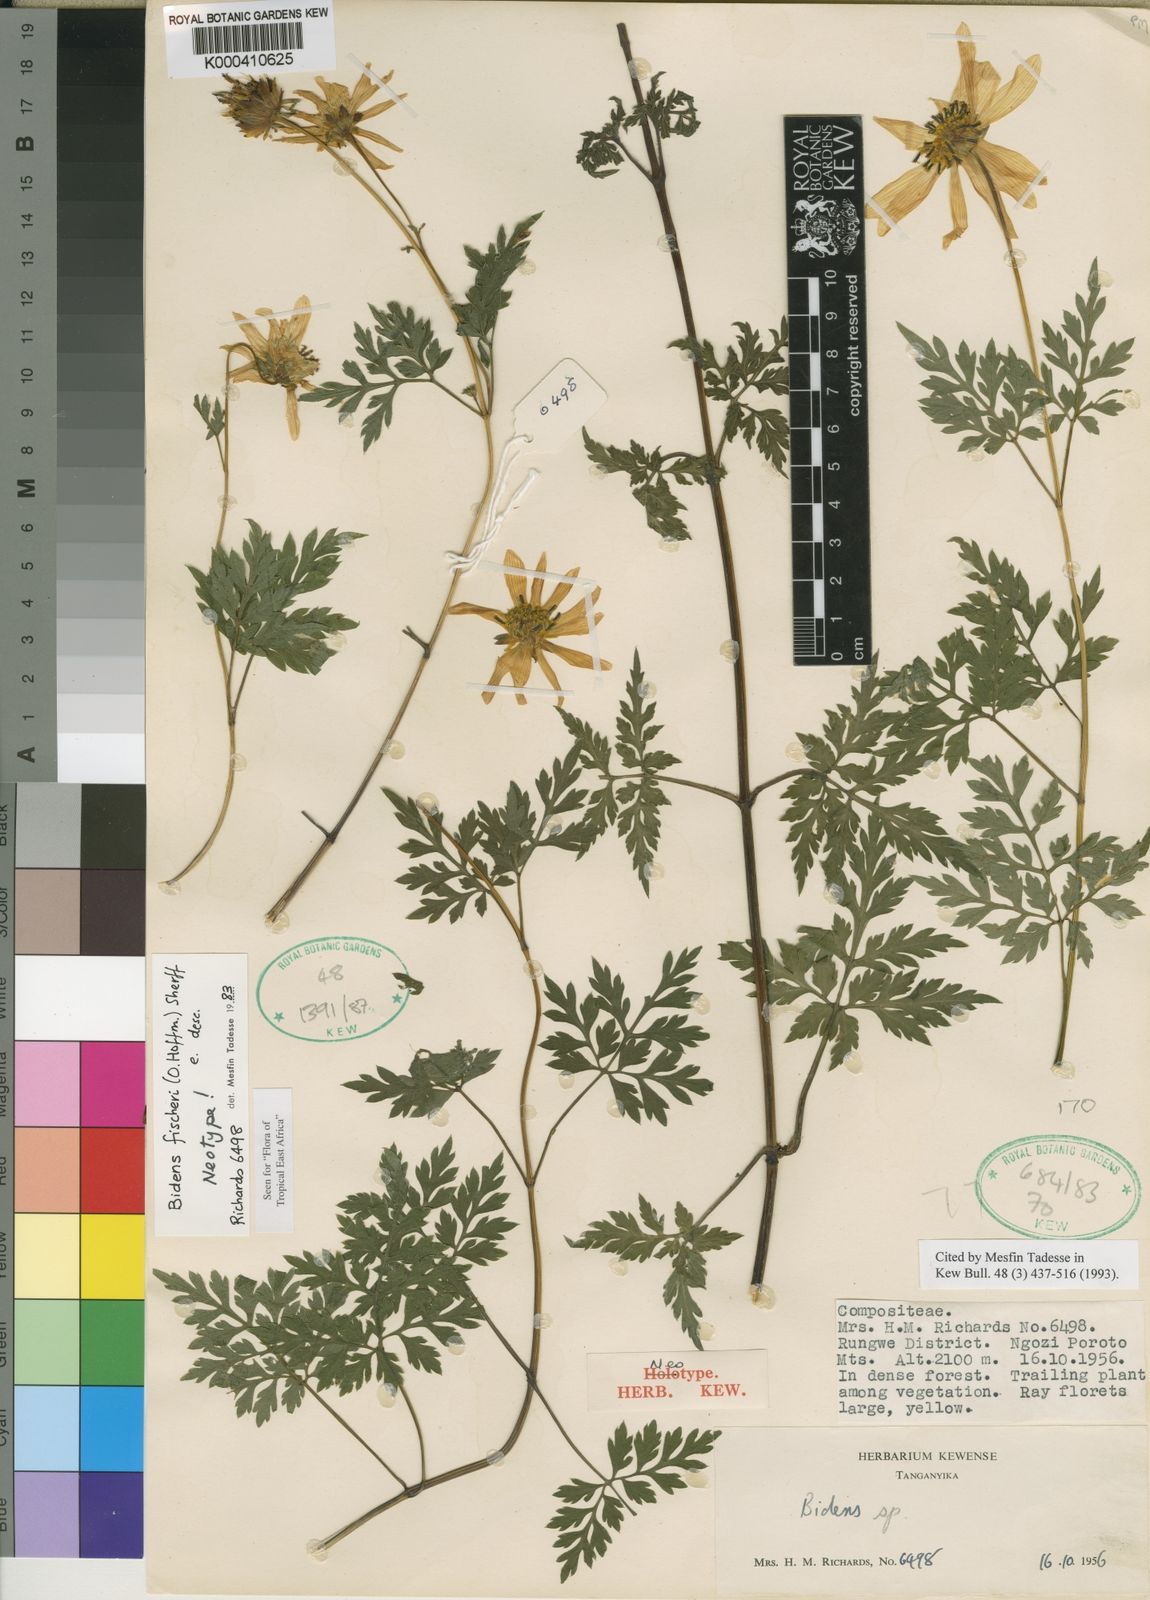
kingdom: Plantae
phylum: Tracheophyta
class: Magnoliopsida
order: Asterales
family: Asteraceae
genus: Bidens
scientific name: Bidens fischeri
